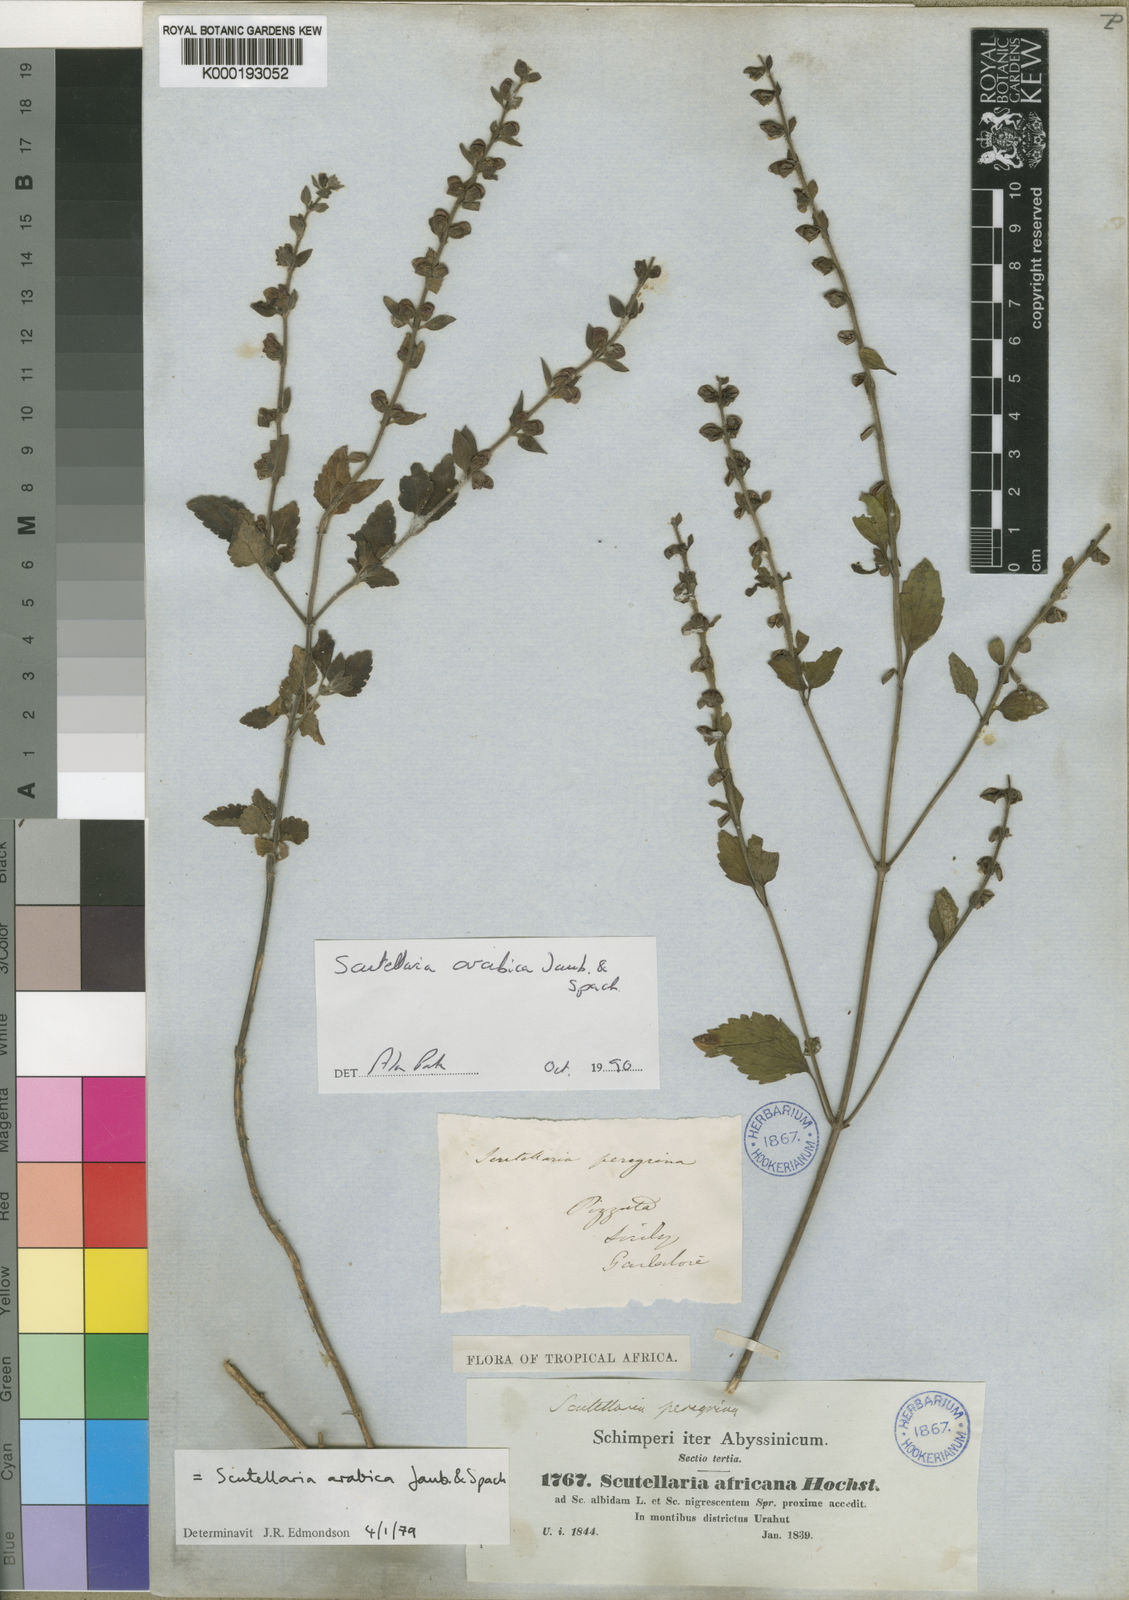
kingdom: Plantae
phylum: Tracheophyta
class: Magnoliopsida
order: Lamiales
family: Lamiaceae
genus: Scutellaria
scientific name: Scutellaria arabica
